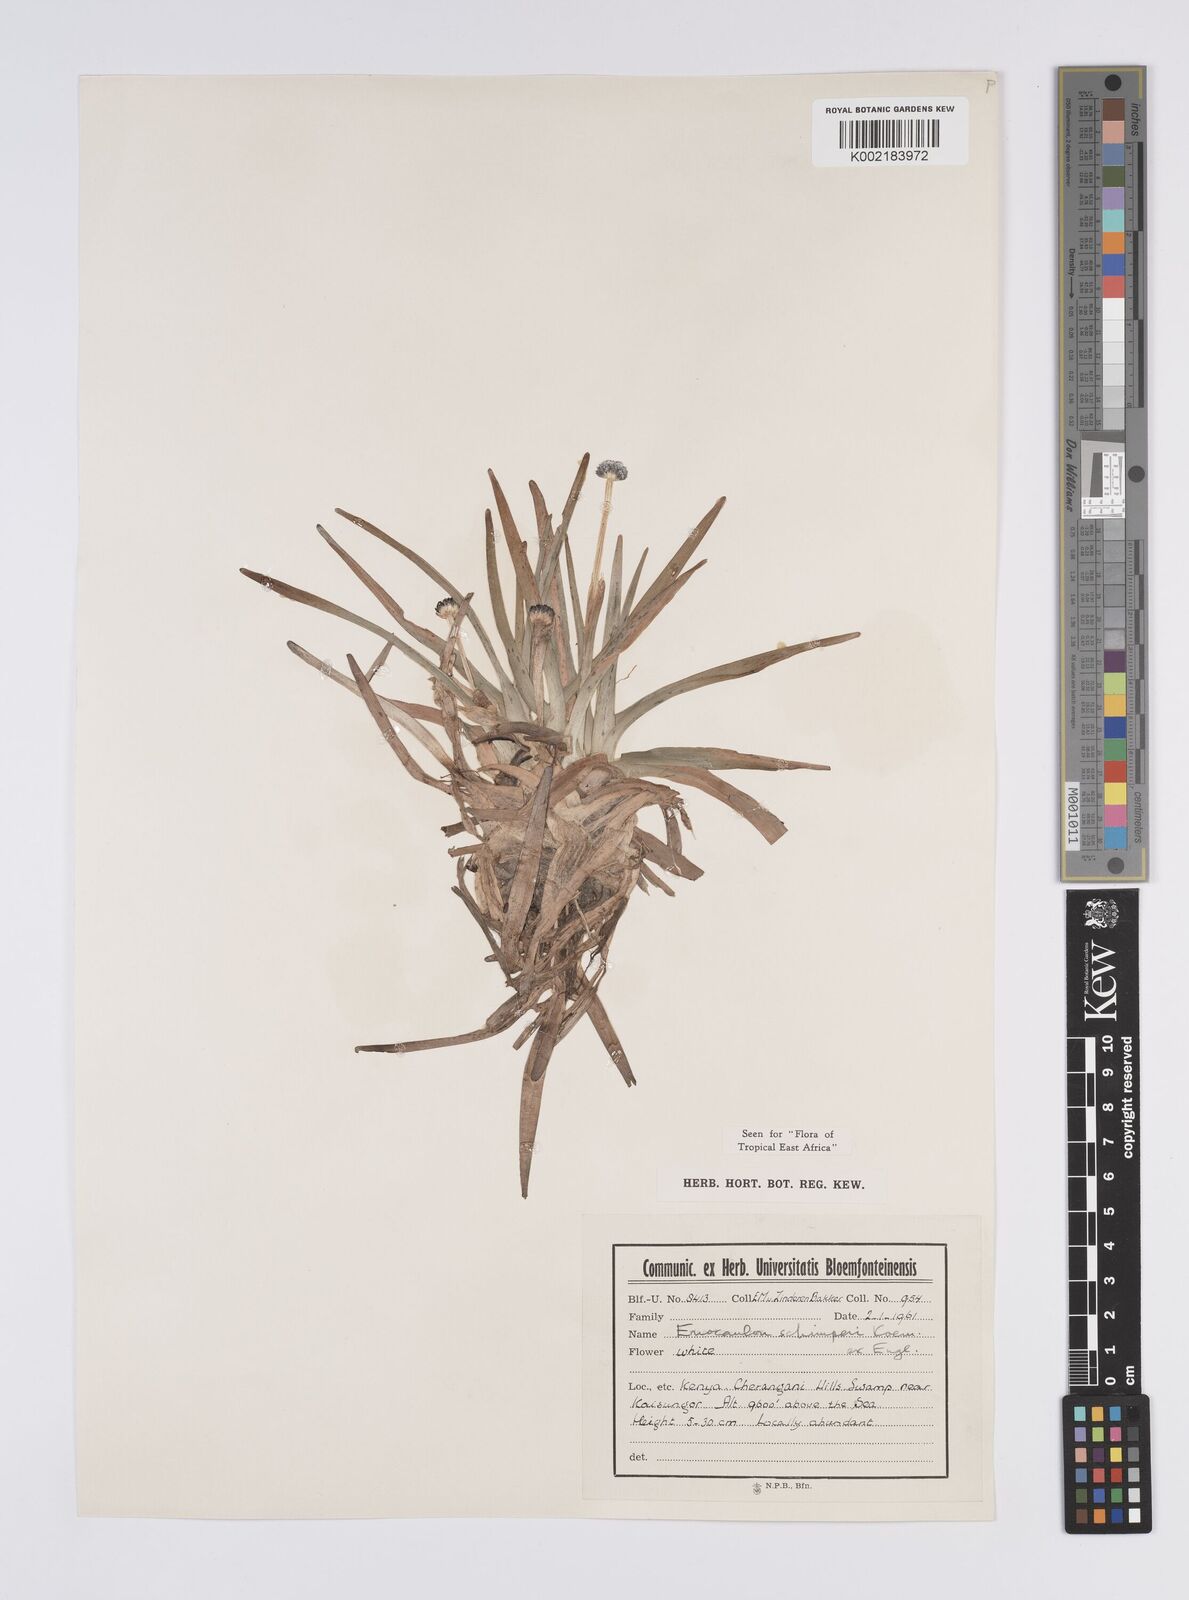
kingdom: Plantae
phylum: Tracheophyta
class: Liliopsida
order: Poales
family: Eriocaulaceae
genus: Eriocaulon
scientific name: Eriocaulon schimperi
